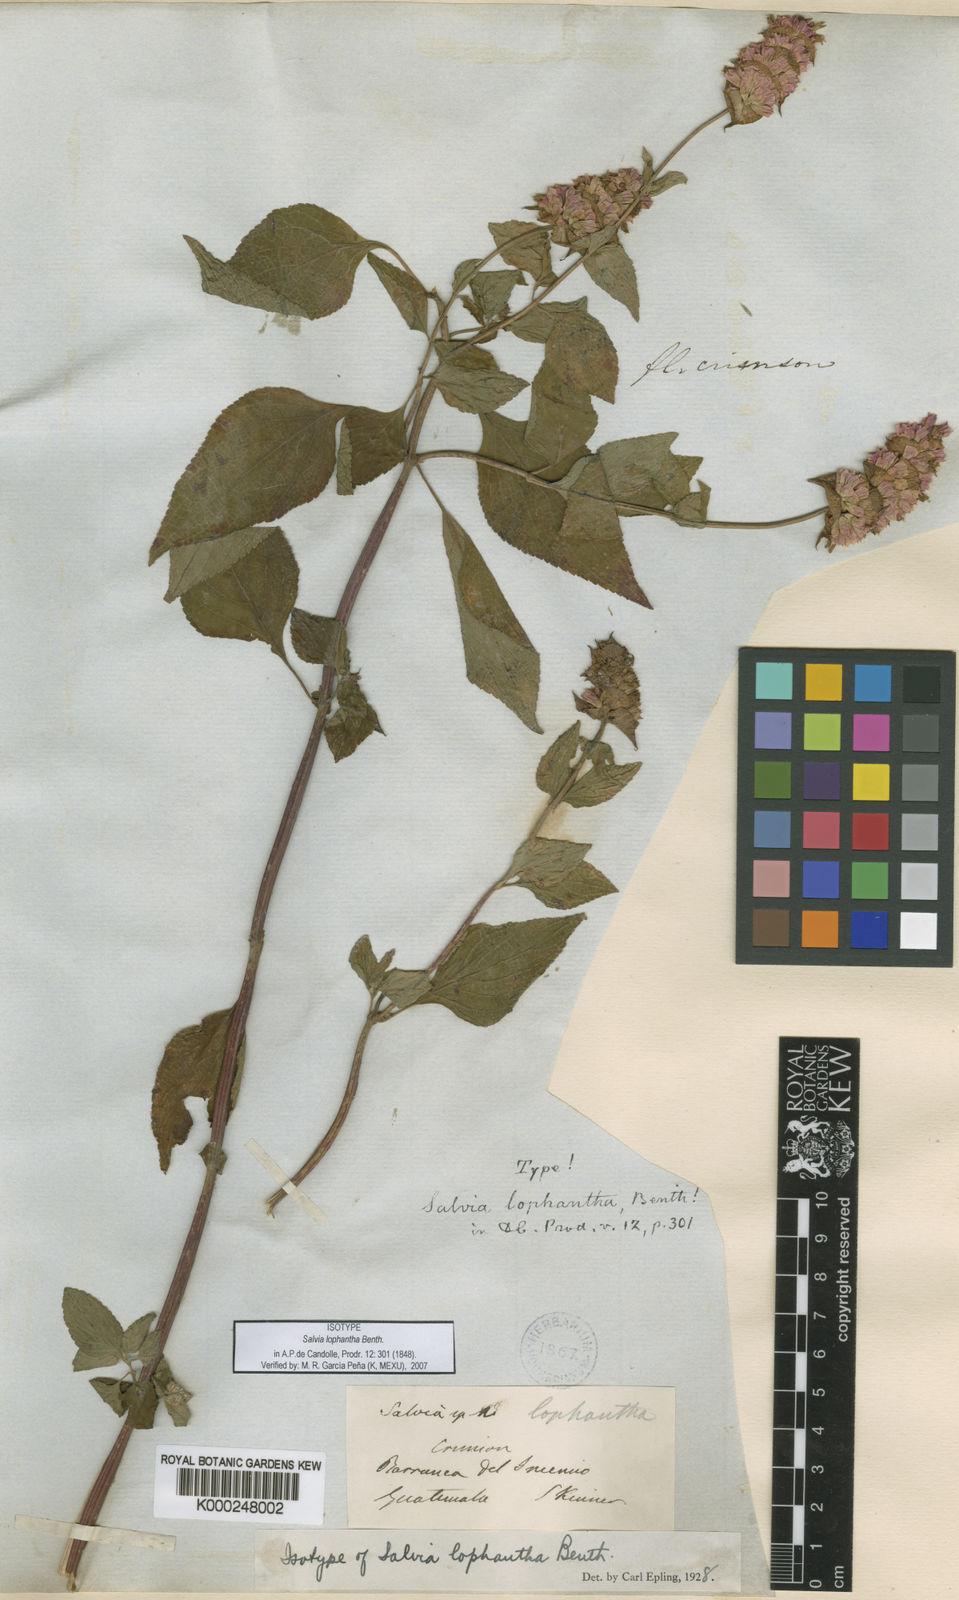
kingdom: Plantae
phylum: Tracheophyta
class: Magnoliopsida
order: Lamiales
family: Lamiaceae
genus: Salvia
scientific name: Salvia mocinoi
